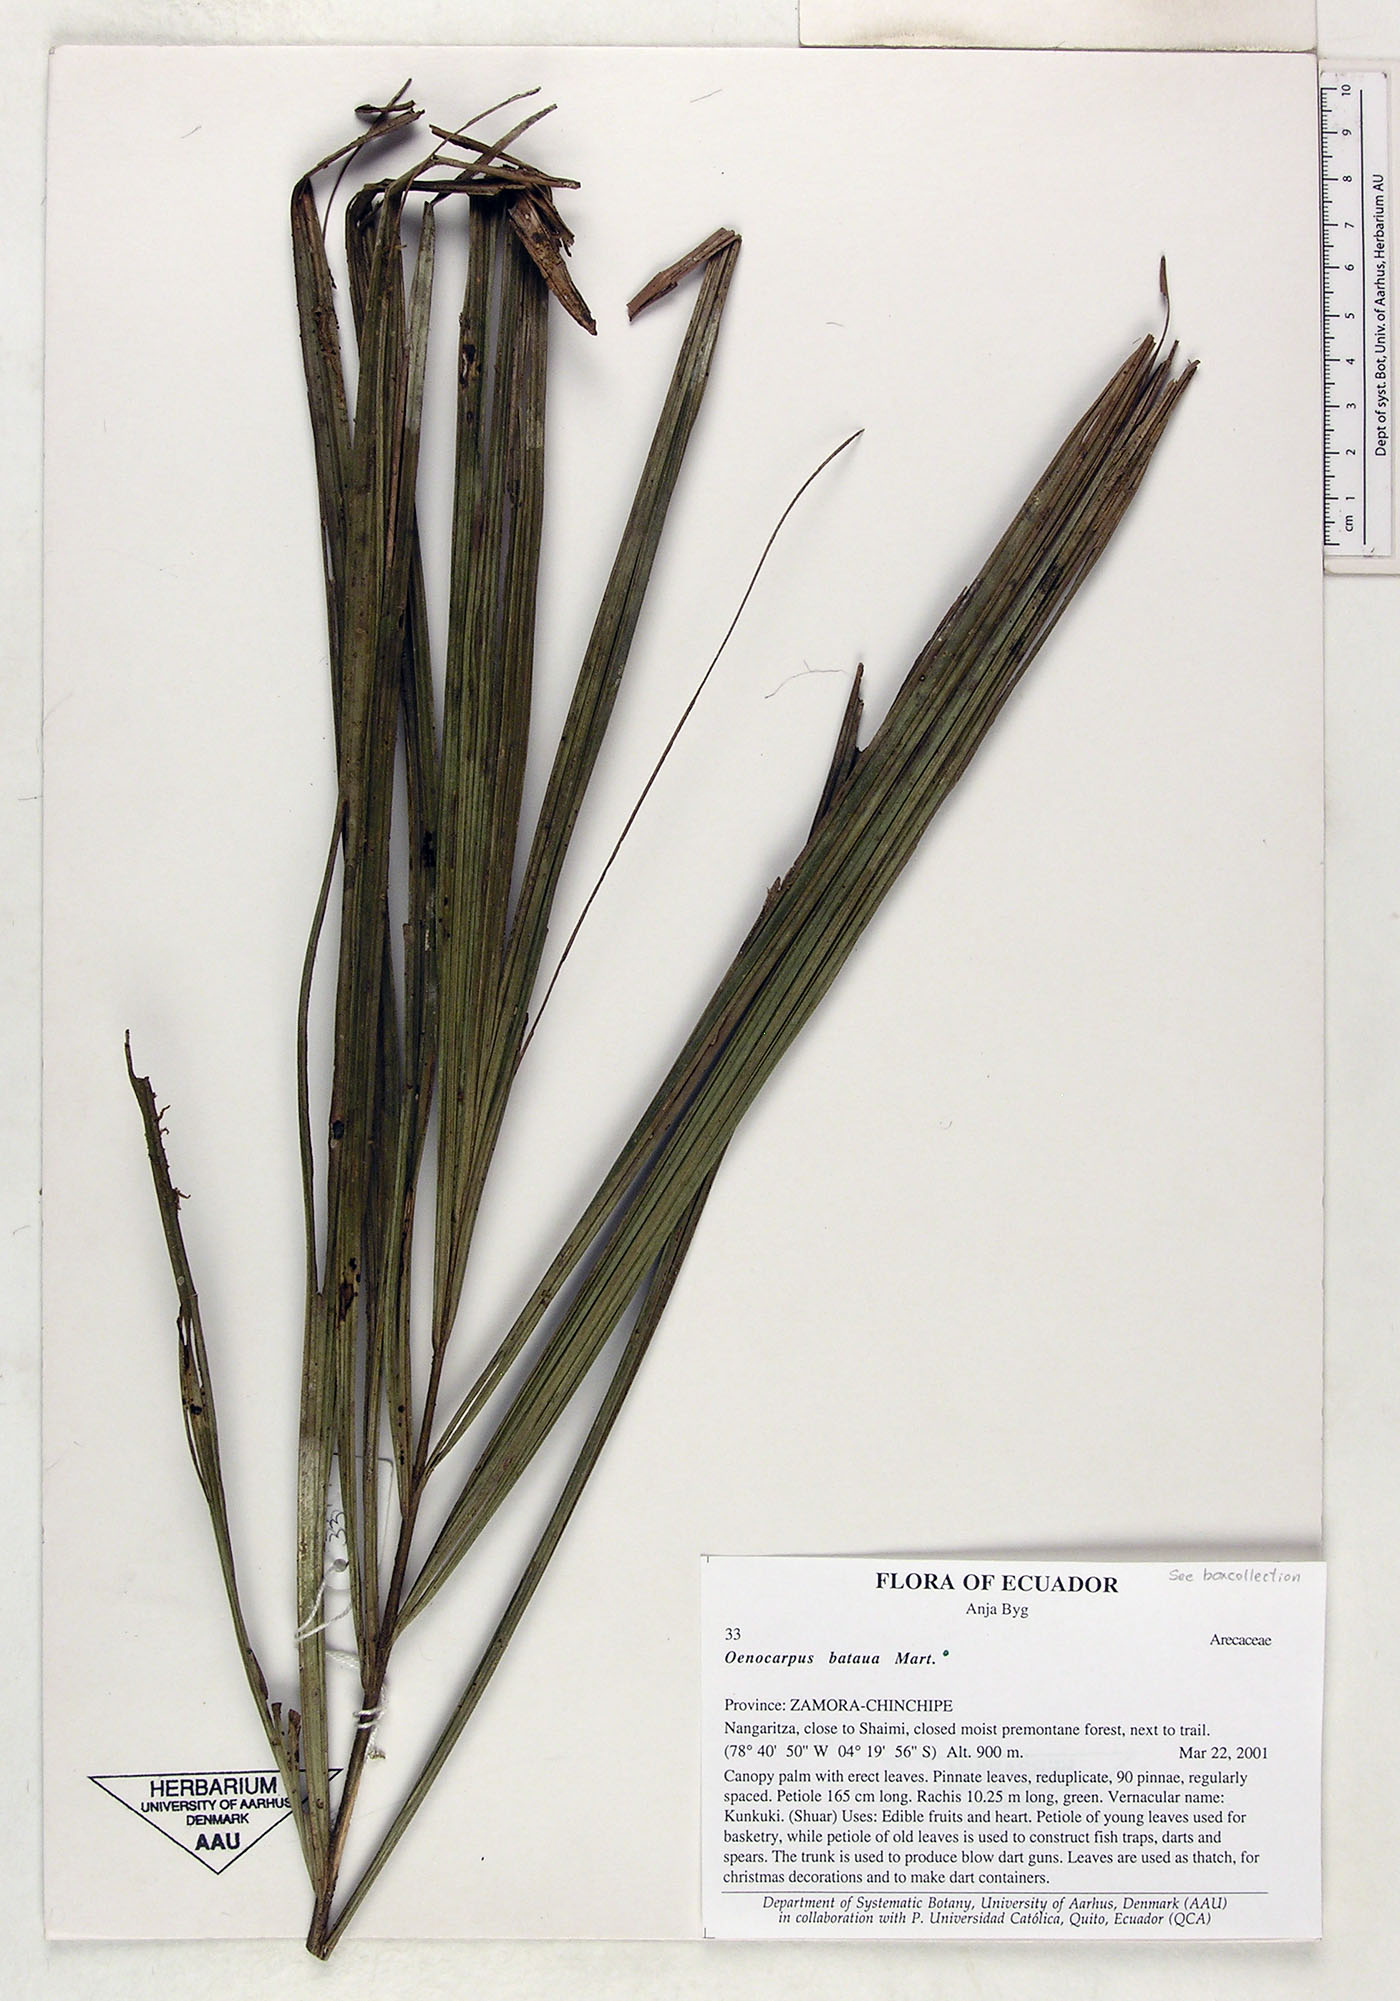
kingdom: Plantae
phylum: Tracheophyta
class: Liliopsida
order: Arecales
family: Arecaceae
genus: Oenocarpus
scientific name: Oenocarpus bataua
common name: Bataua palm
